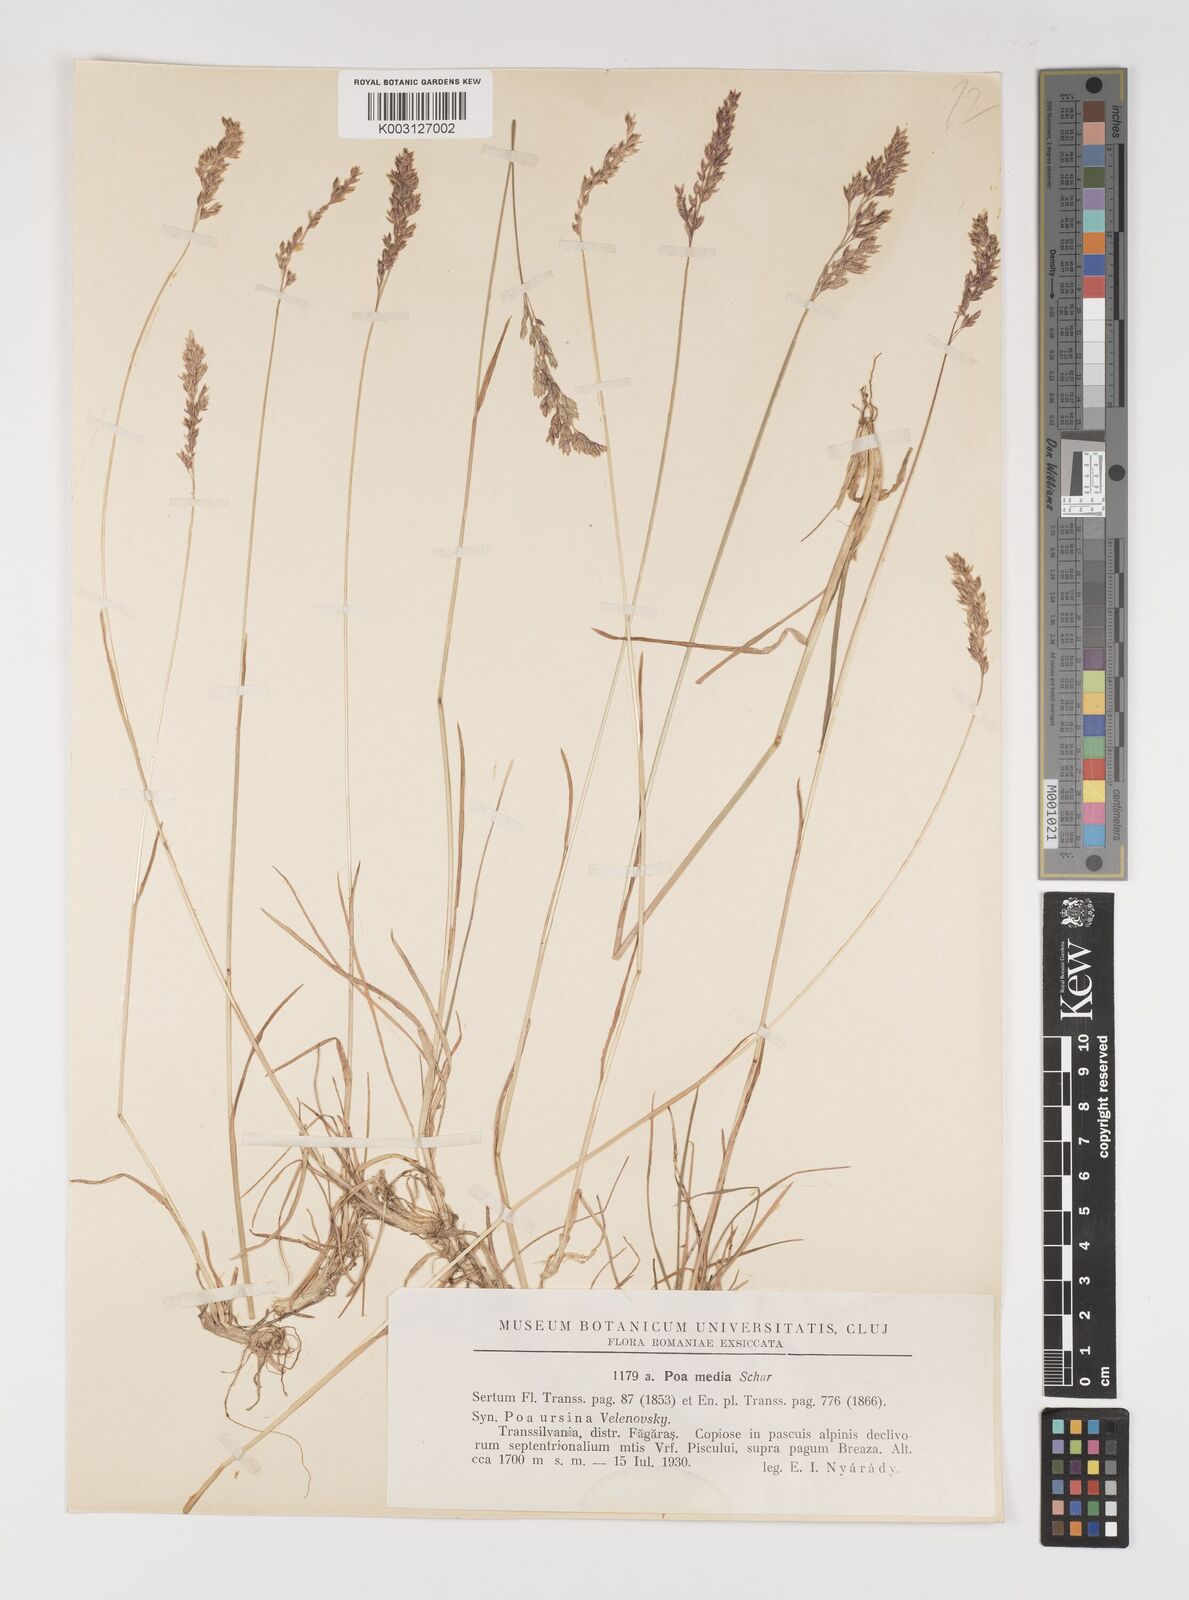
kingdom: Plantae
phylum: Tracheophyta
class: Liliopsida
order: Poales
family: Poaceae
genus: Poa
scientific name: Poa ursina
